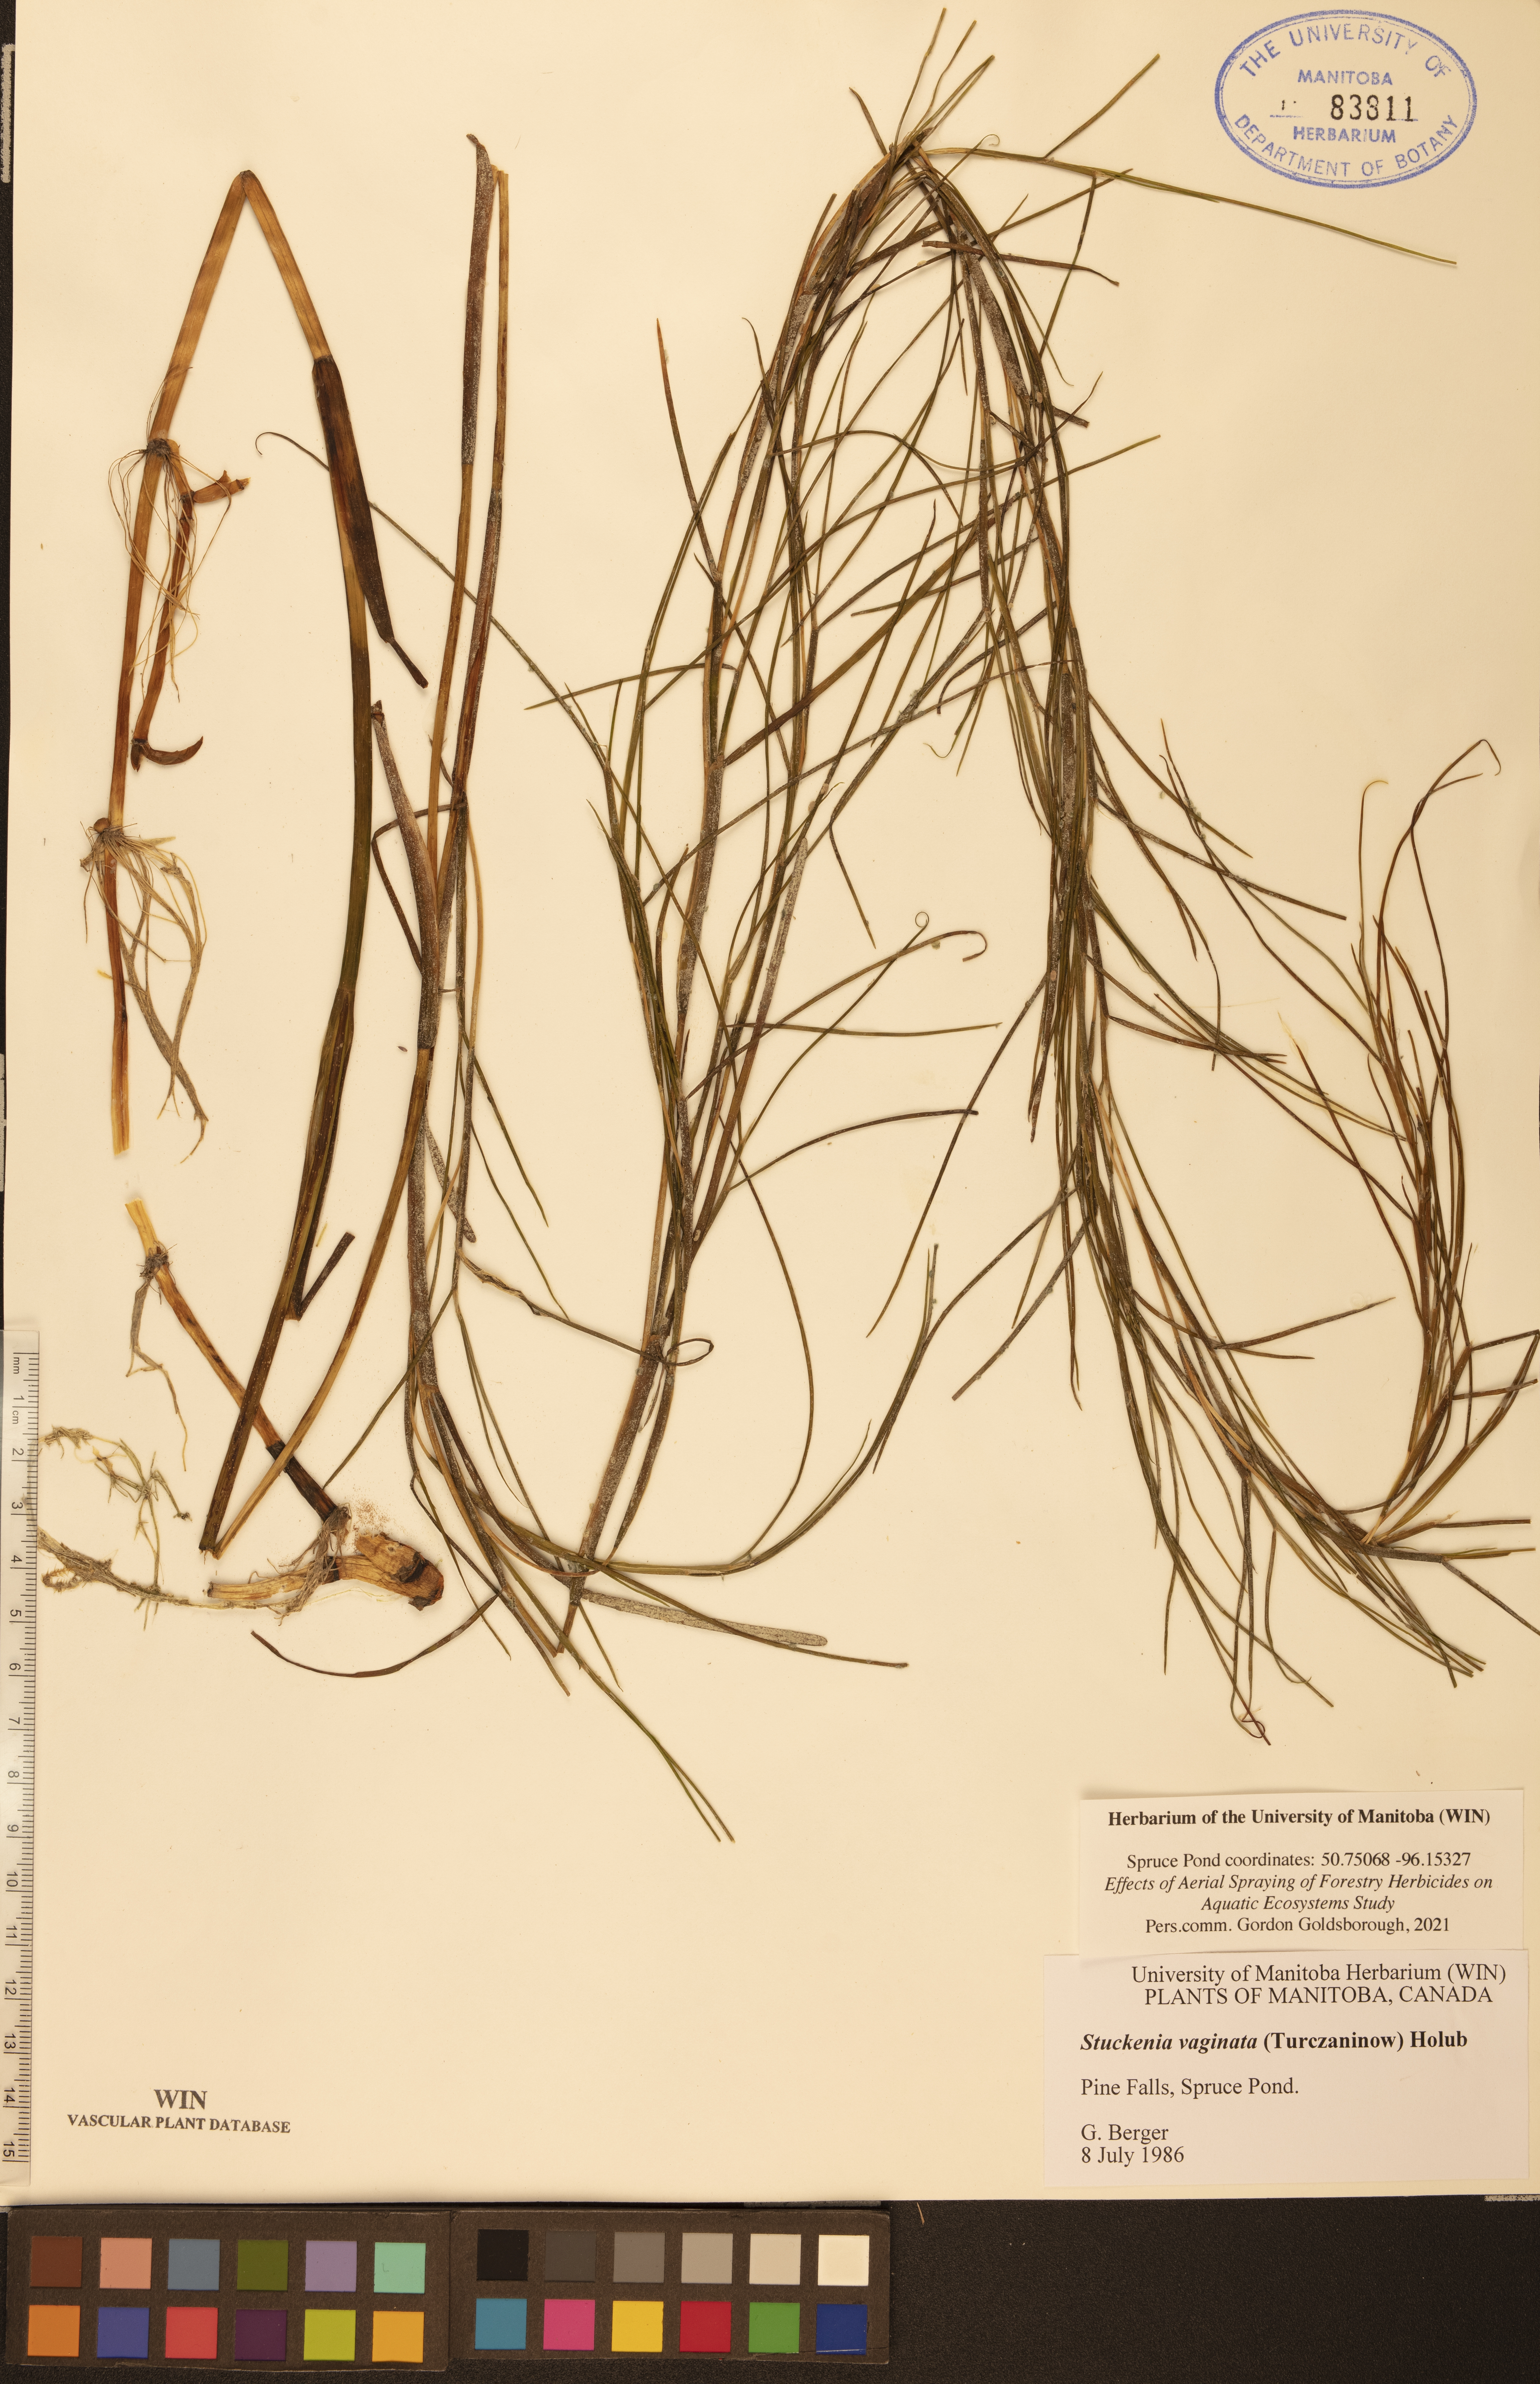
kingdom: Plantae
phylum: Tracheophyta
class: Liliopsida
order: Alismatales
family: Potamogetonaceae
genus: Stuckenia
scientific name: Stuckenia vaginata
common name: Big-sheathed pondweed
